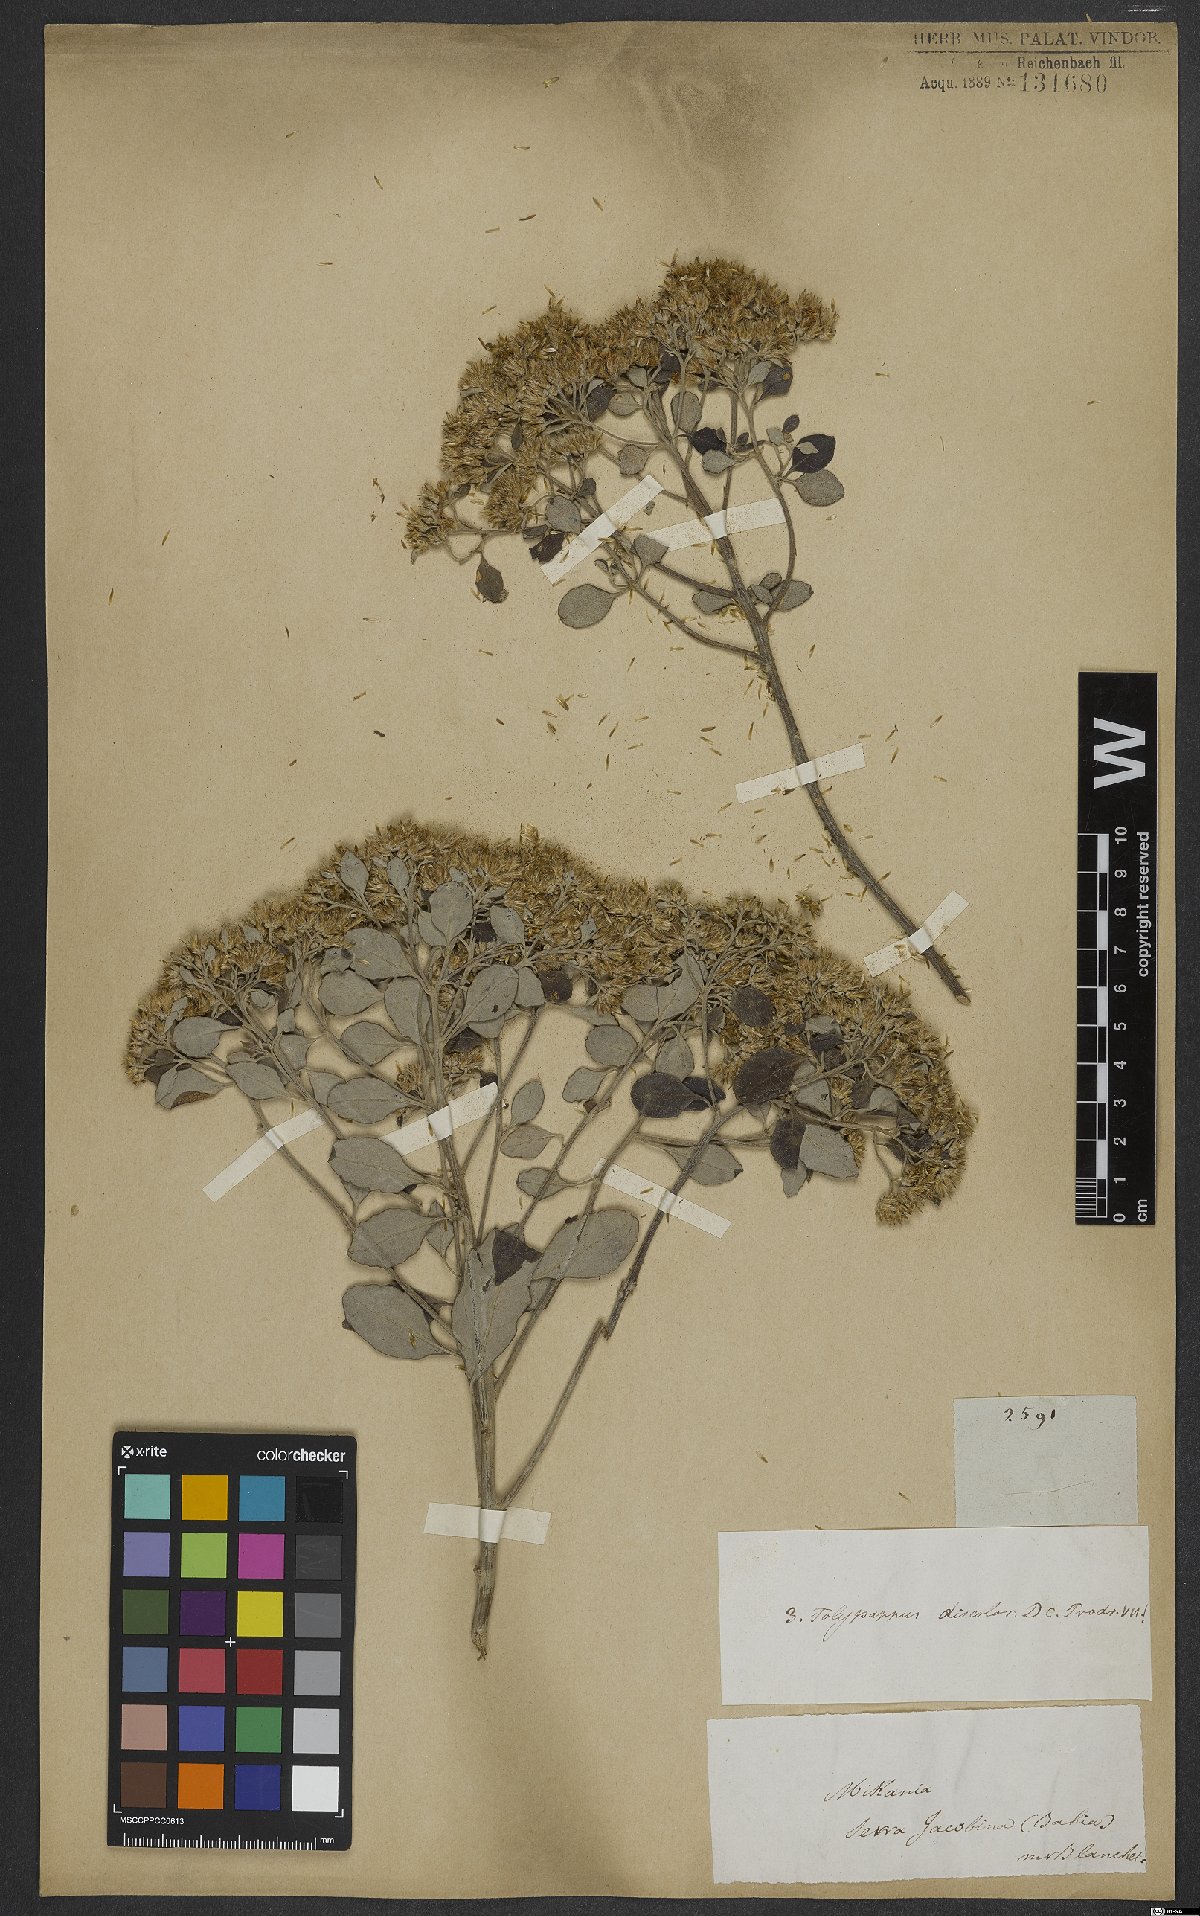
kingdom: Plantae
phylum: Tracheophyta
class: Magnoliopsida
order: Asterales
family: Asteraceae
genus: Eremanthus
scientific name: Eremanthus capitatus
